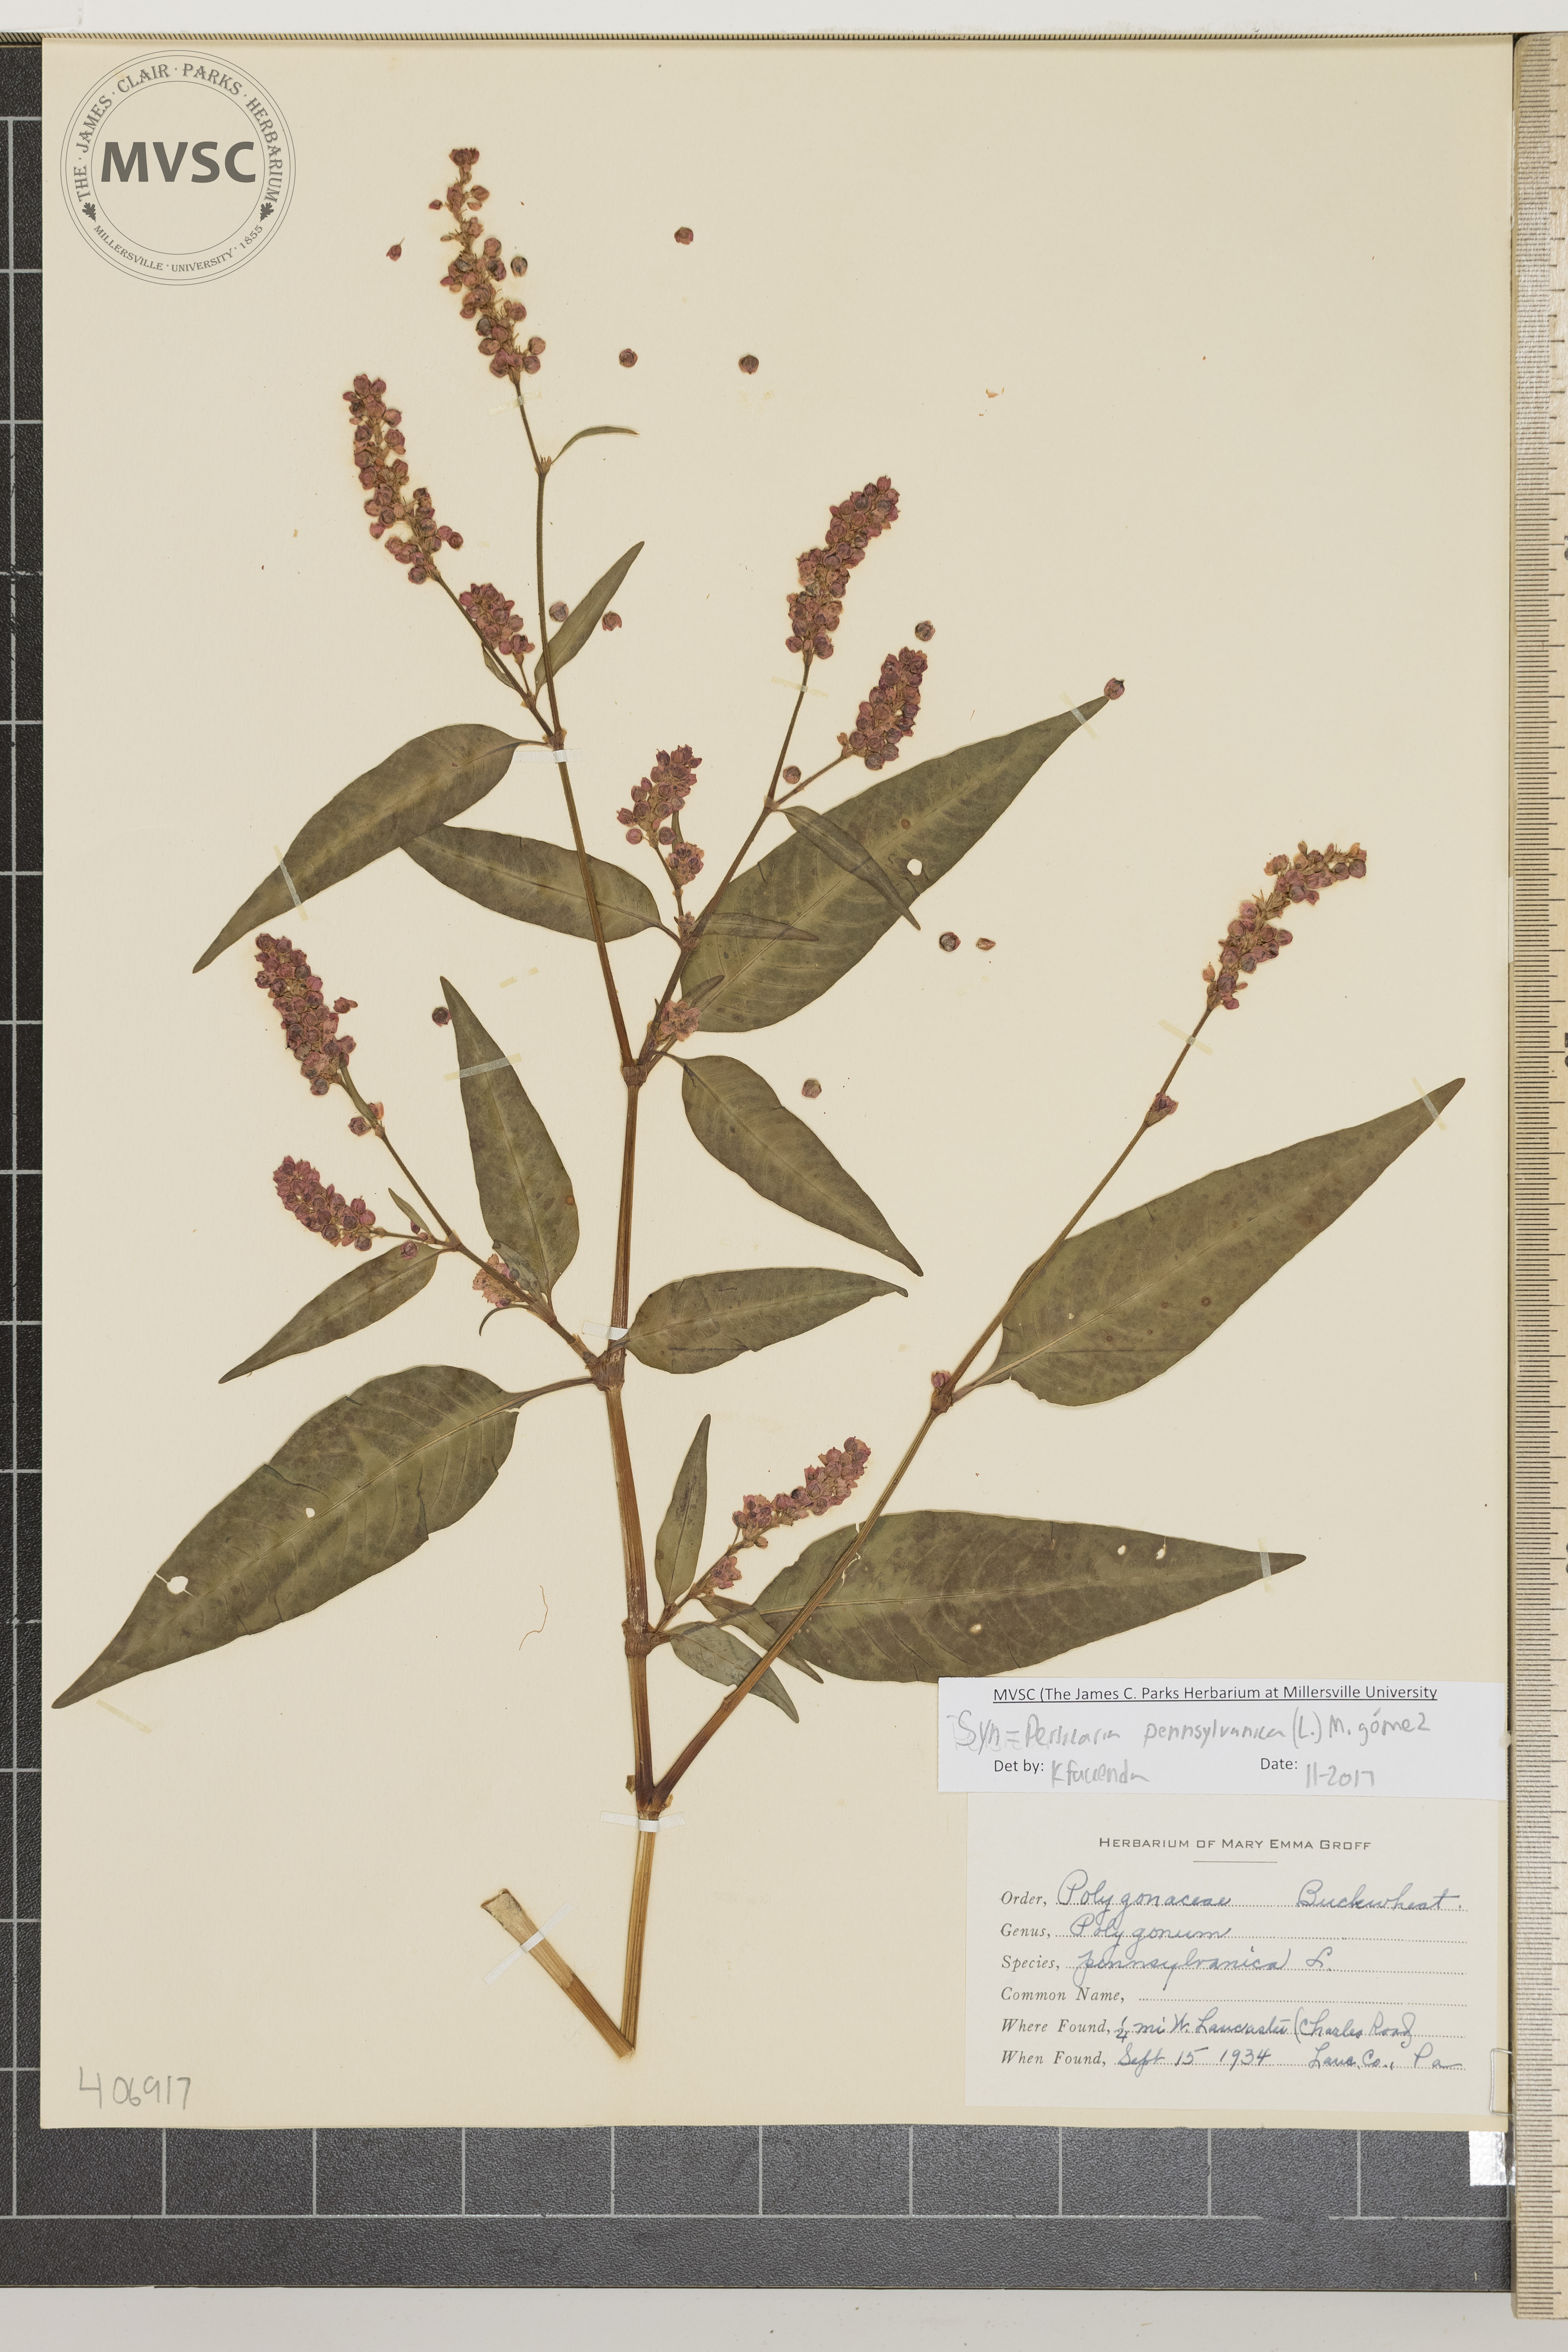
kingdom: Plantae
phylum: Tracheophyta
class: Magnoliopsida
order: Caryophyllales
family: Polygonaceae
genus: Persicaria
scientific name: Persicaria pensylvanica
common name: Pinkweed
